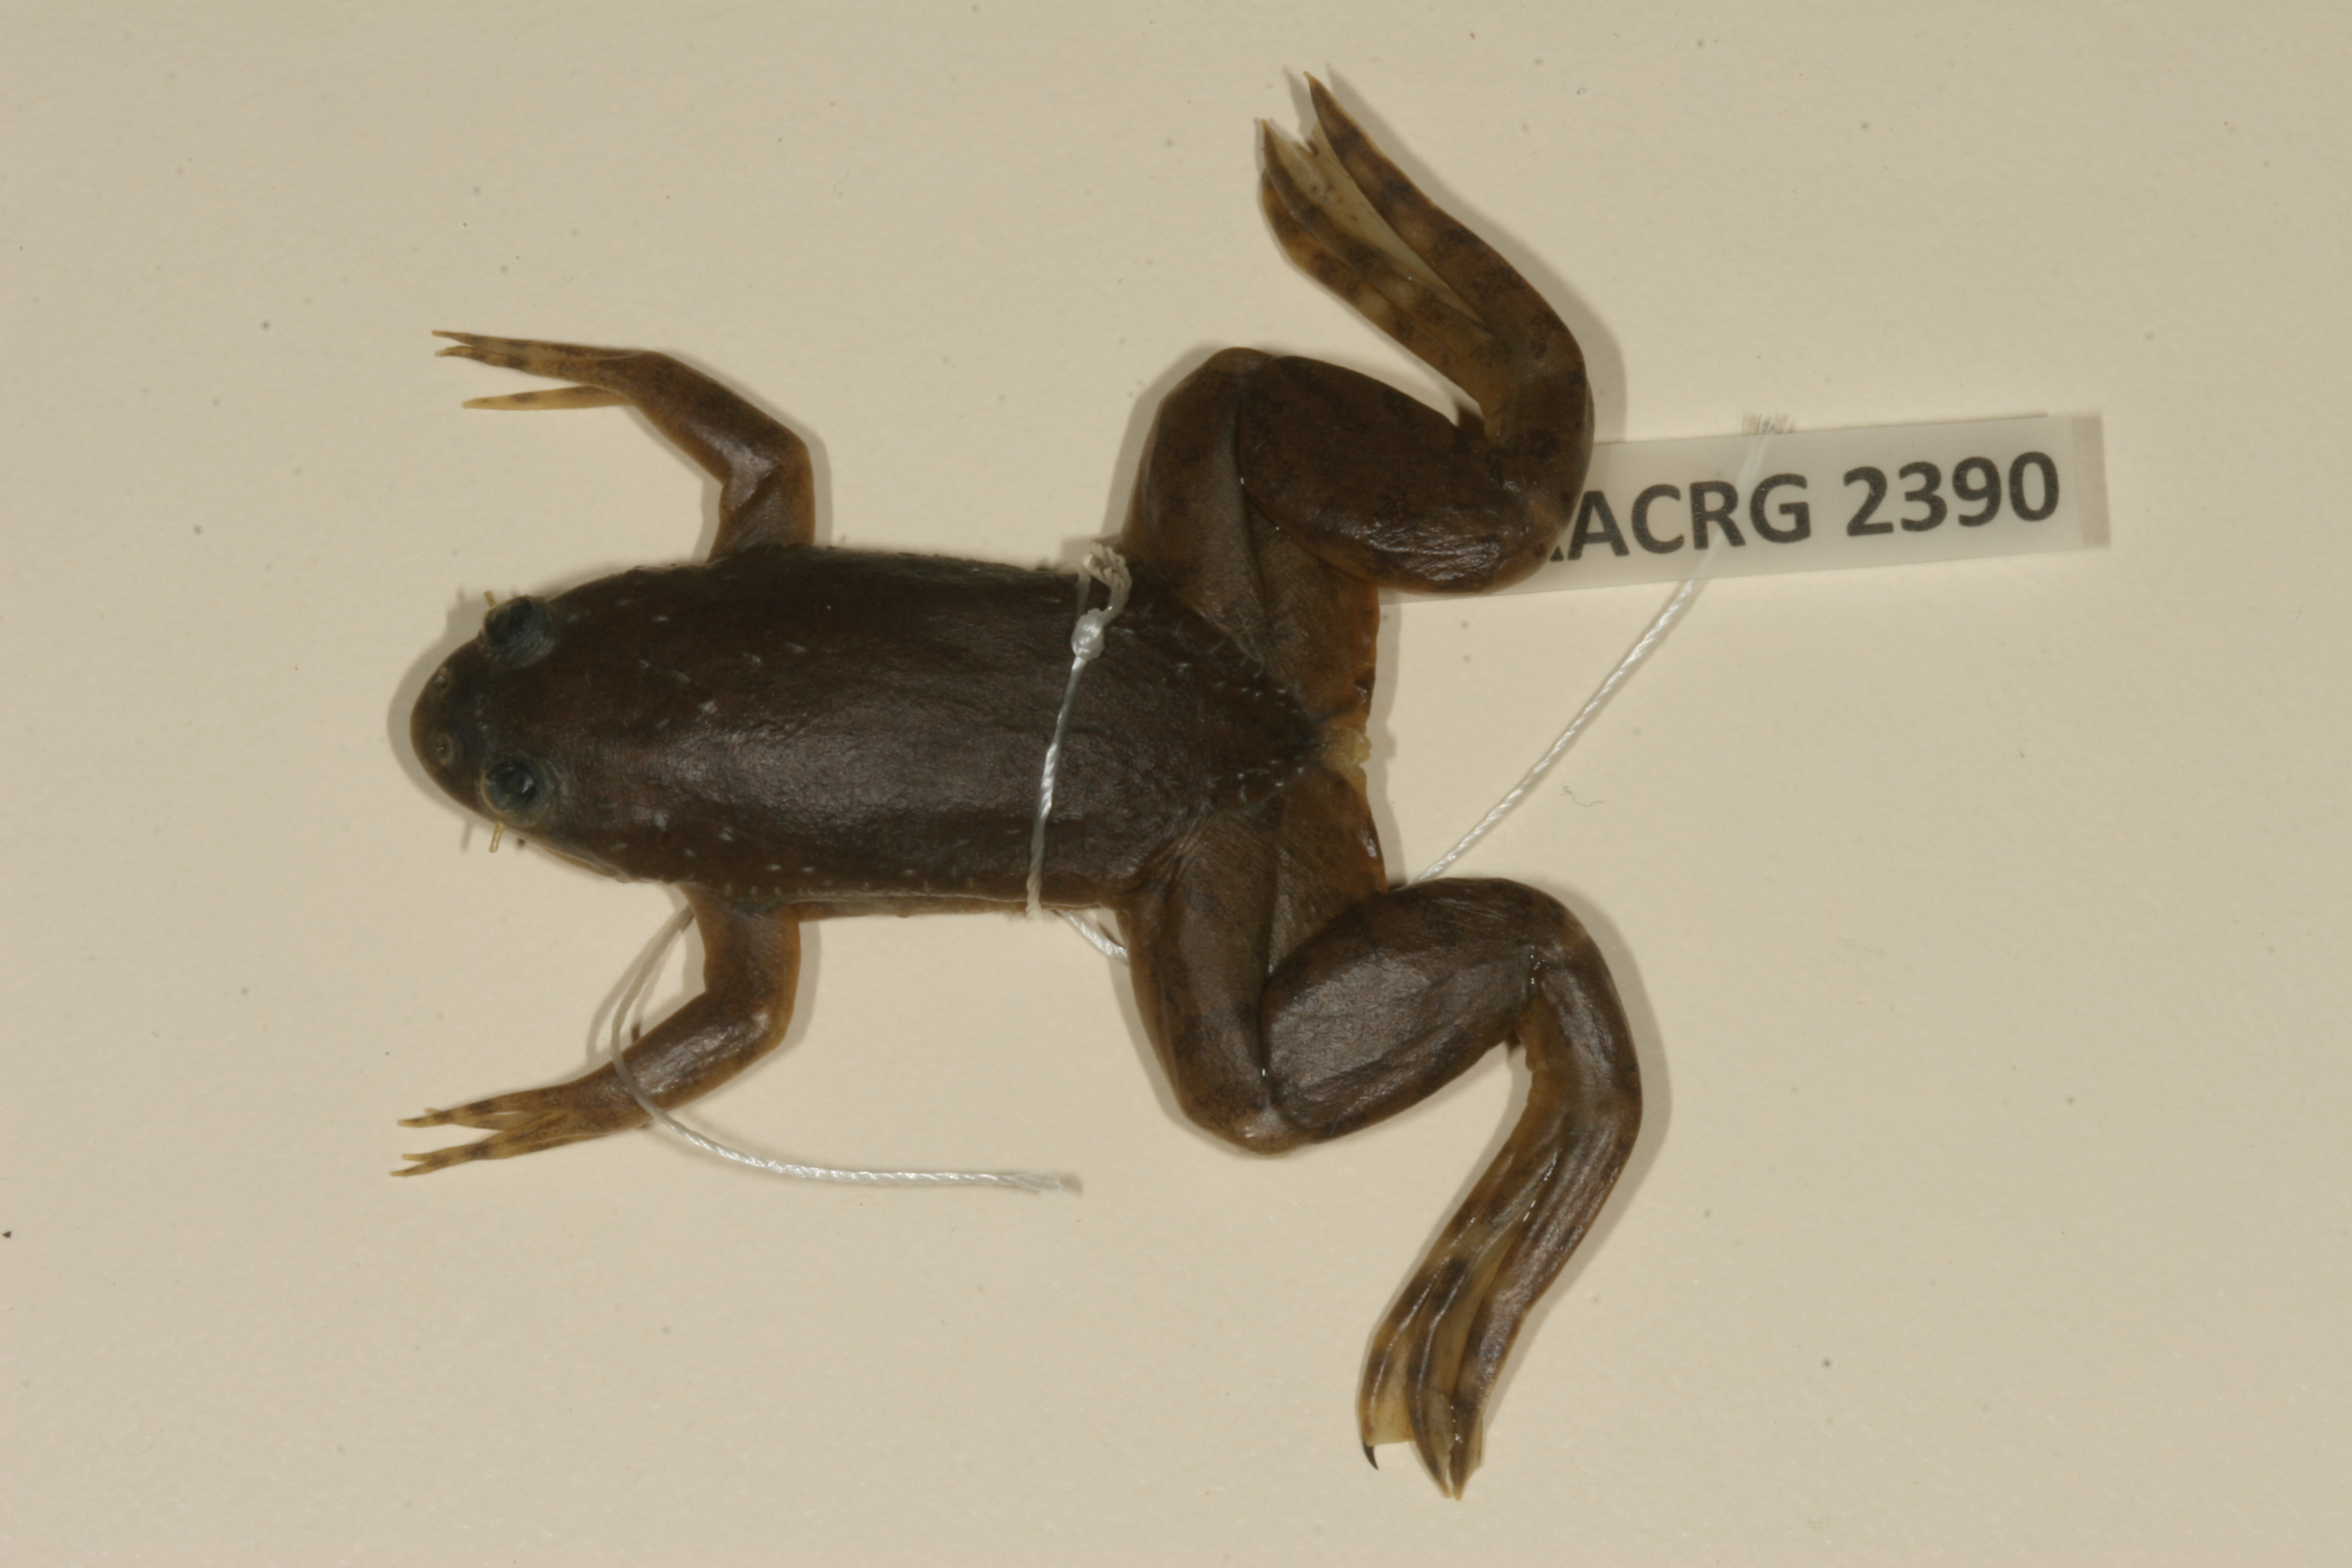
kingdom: Animalia
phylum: Chordata
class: Amphibia
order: Anura
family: Pipidae
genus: Xenopus
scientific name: Xenopus muelleri
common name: Muller's clawed frog
